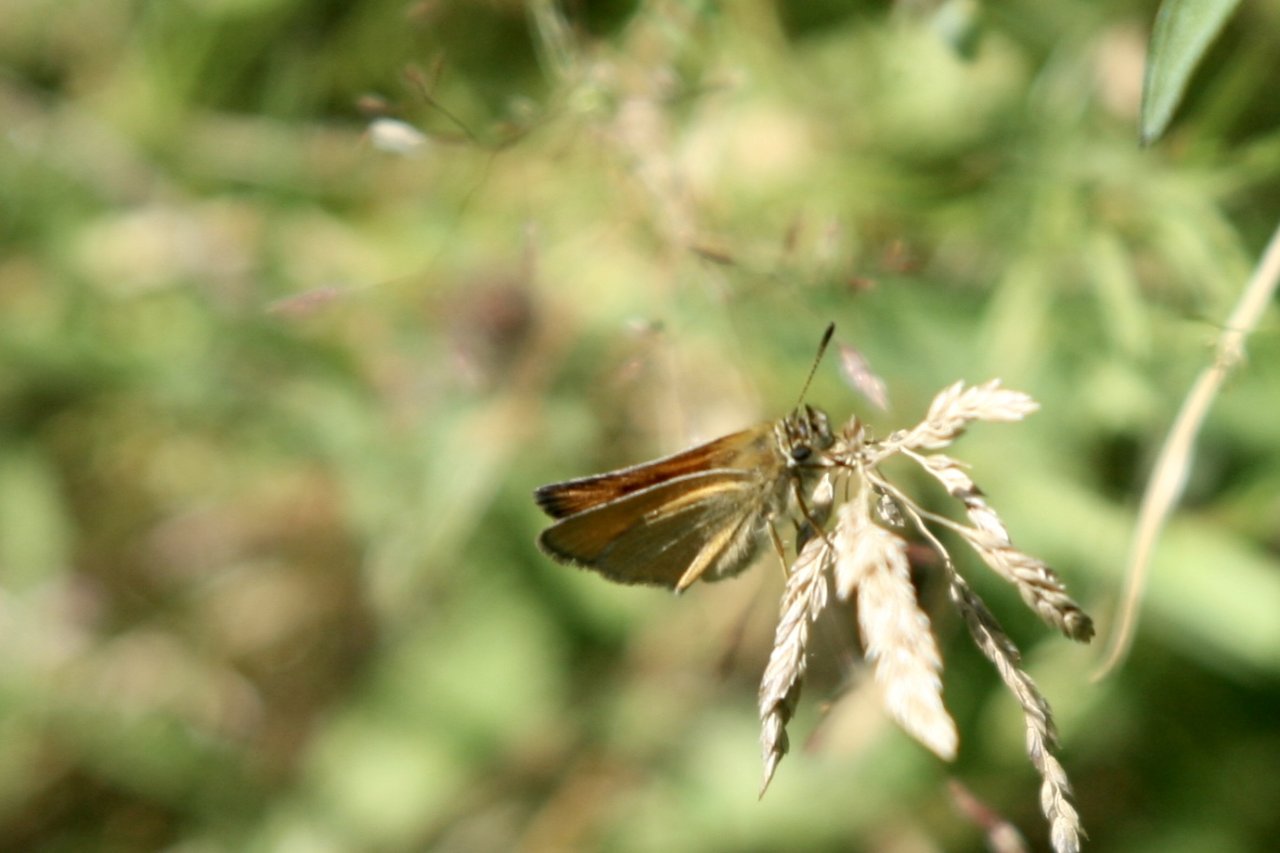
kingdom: Animalia
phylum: Arthropoda
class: Insecta
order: Lepidoptera
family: Hesperiidae
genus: Thymelicus
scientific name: Thymelicus lineola
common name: European Skipper
